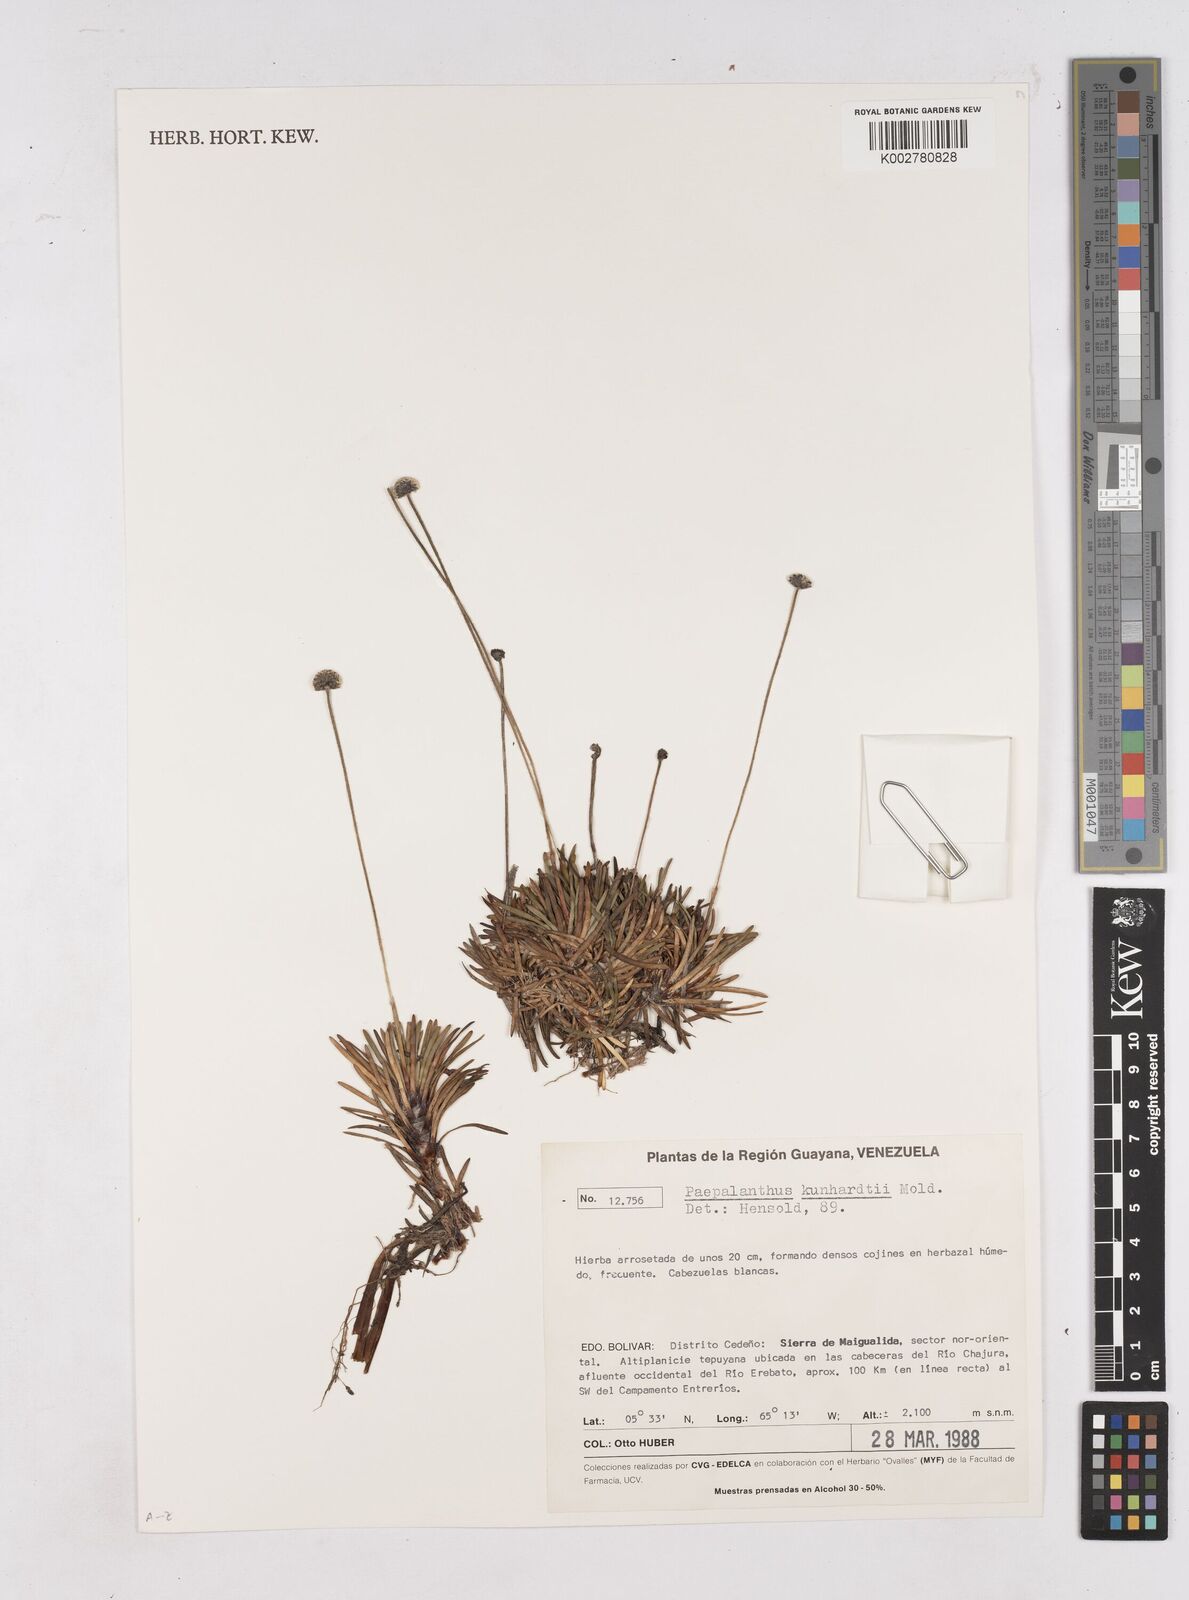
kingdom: Plantae
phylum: Tracheophyta
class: Liliopsida
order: Poales
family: Eriocaulaceae
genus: Paepalanthus
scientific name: Paepalanthus kunhardtii
